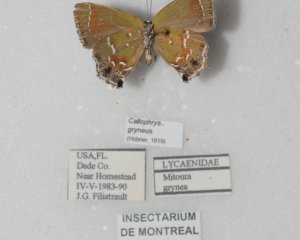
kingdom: Animalia
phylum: Arthropoda
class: Insecta
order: Lepidoptera
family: Lycaenidae
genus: Mitoura
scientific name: Mitoura gryneus
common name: Juniper Hairstreak
